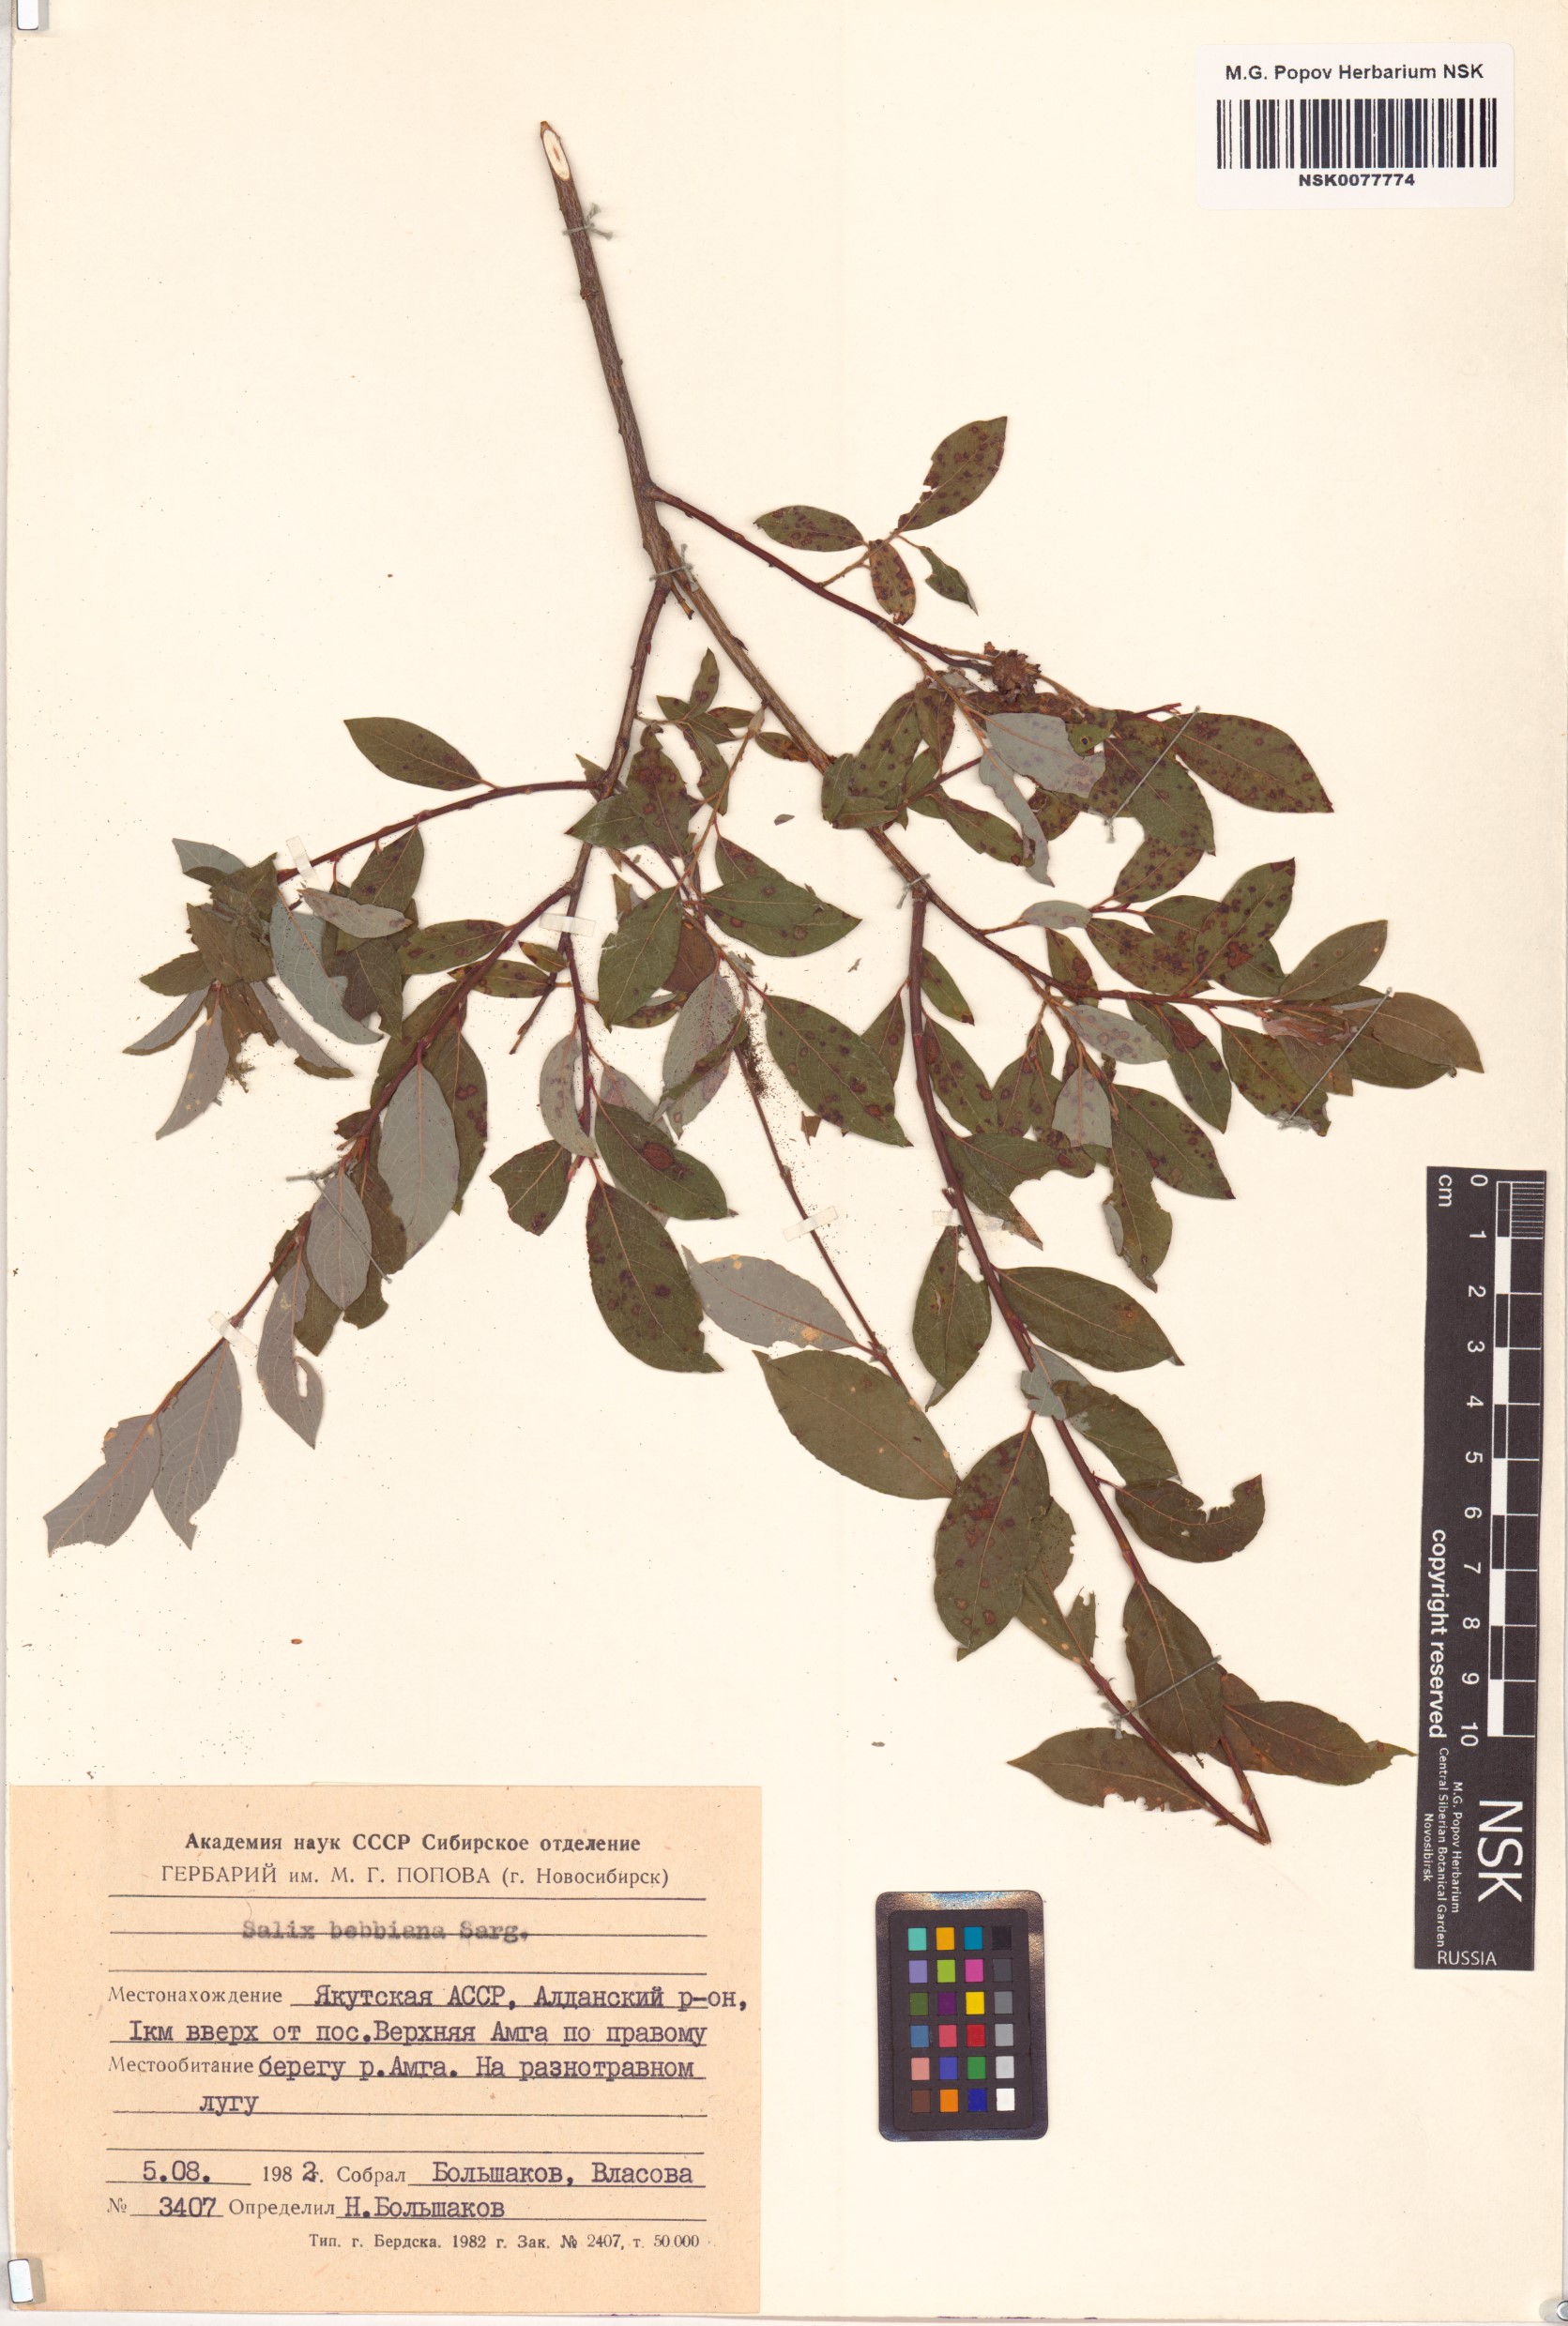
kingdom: Plantae
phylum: Tracheophyta
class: Magnoliopsida
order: Malpighiales
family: Salicaceae
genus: Salix
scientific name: Salix bebbiana
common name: Bebb's willow
